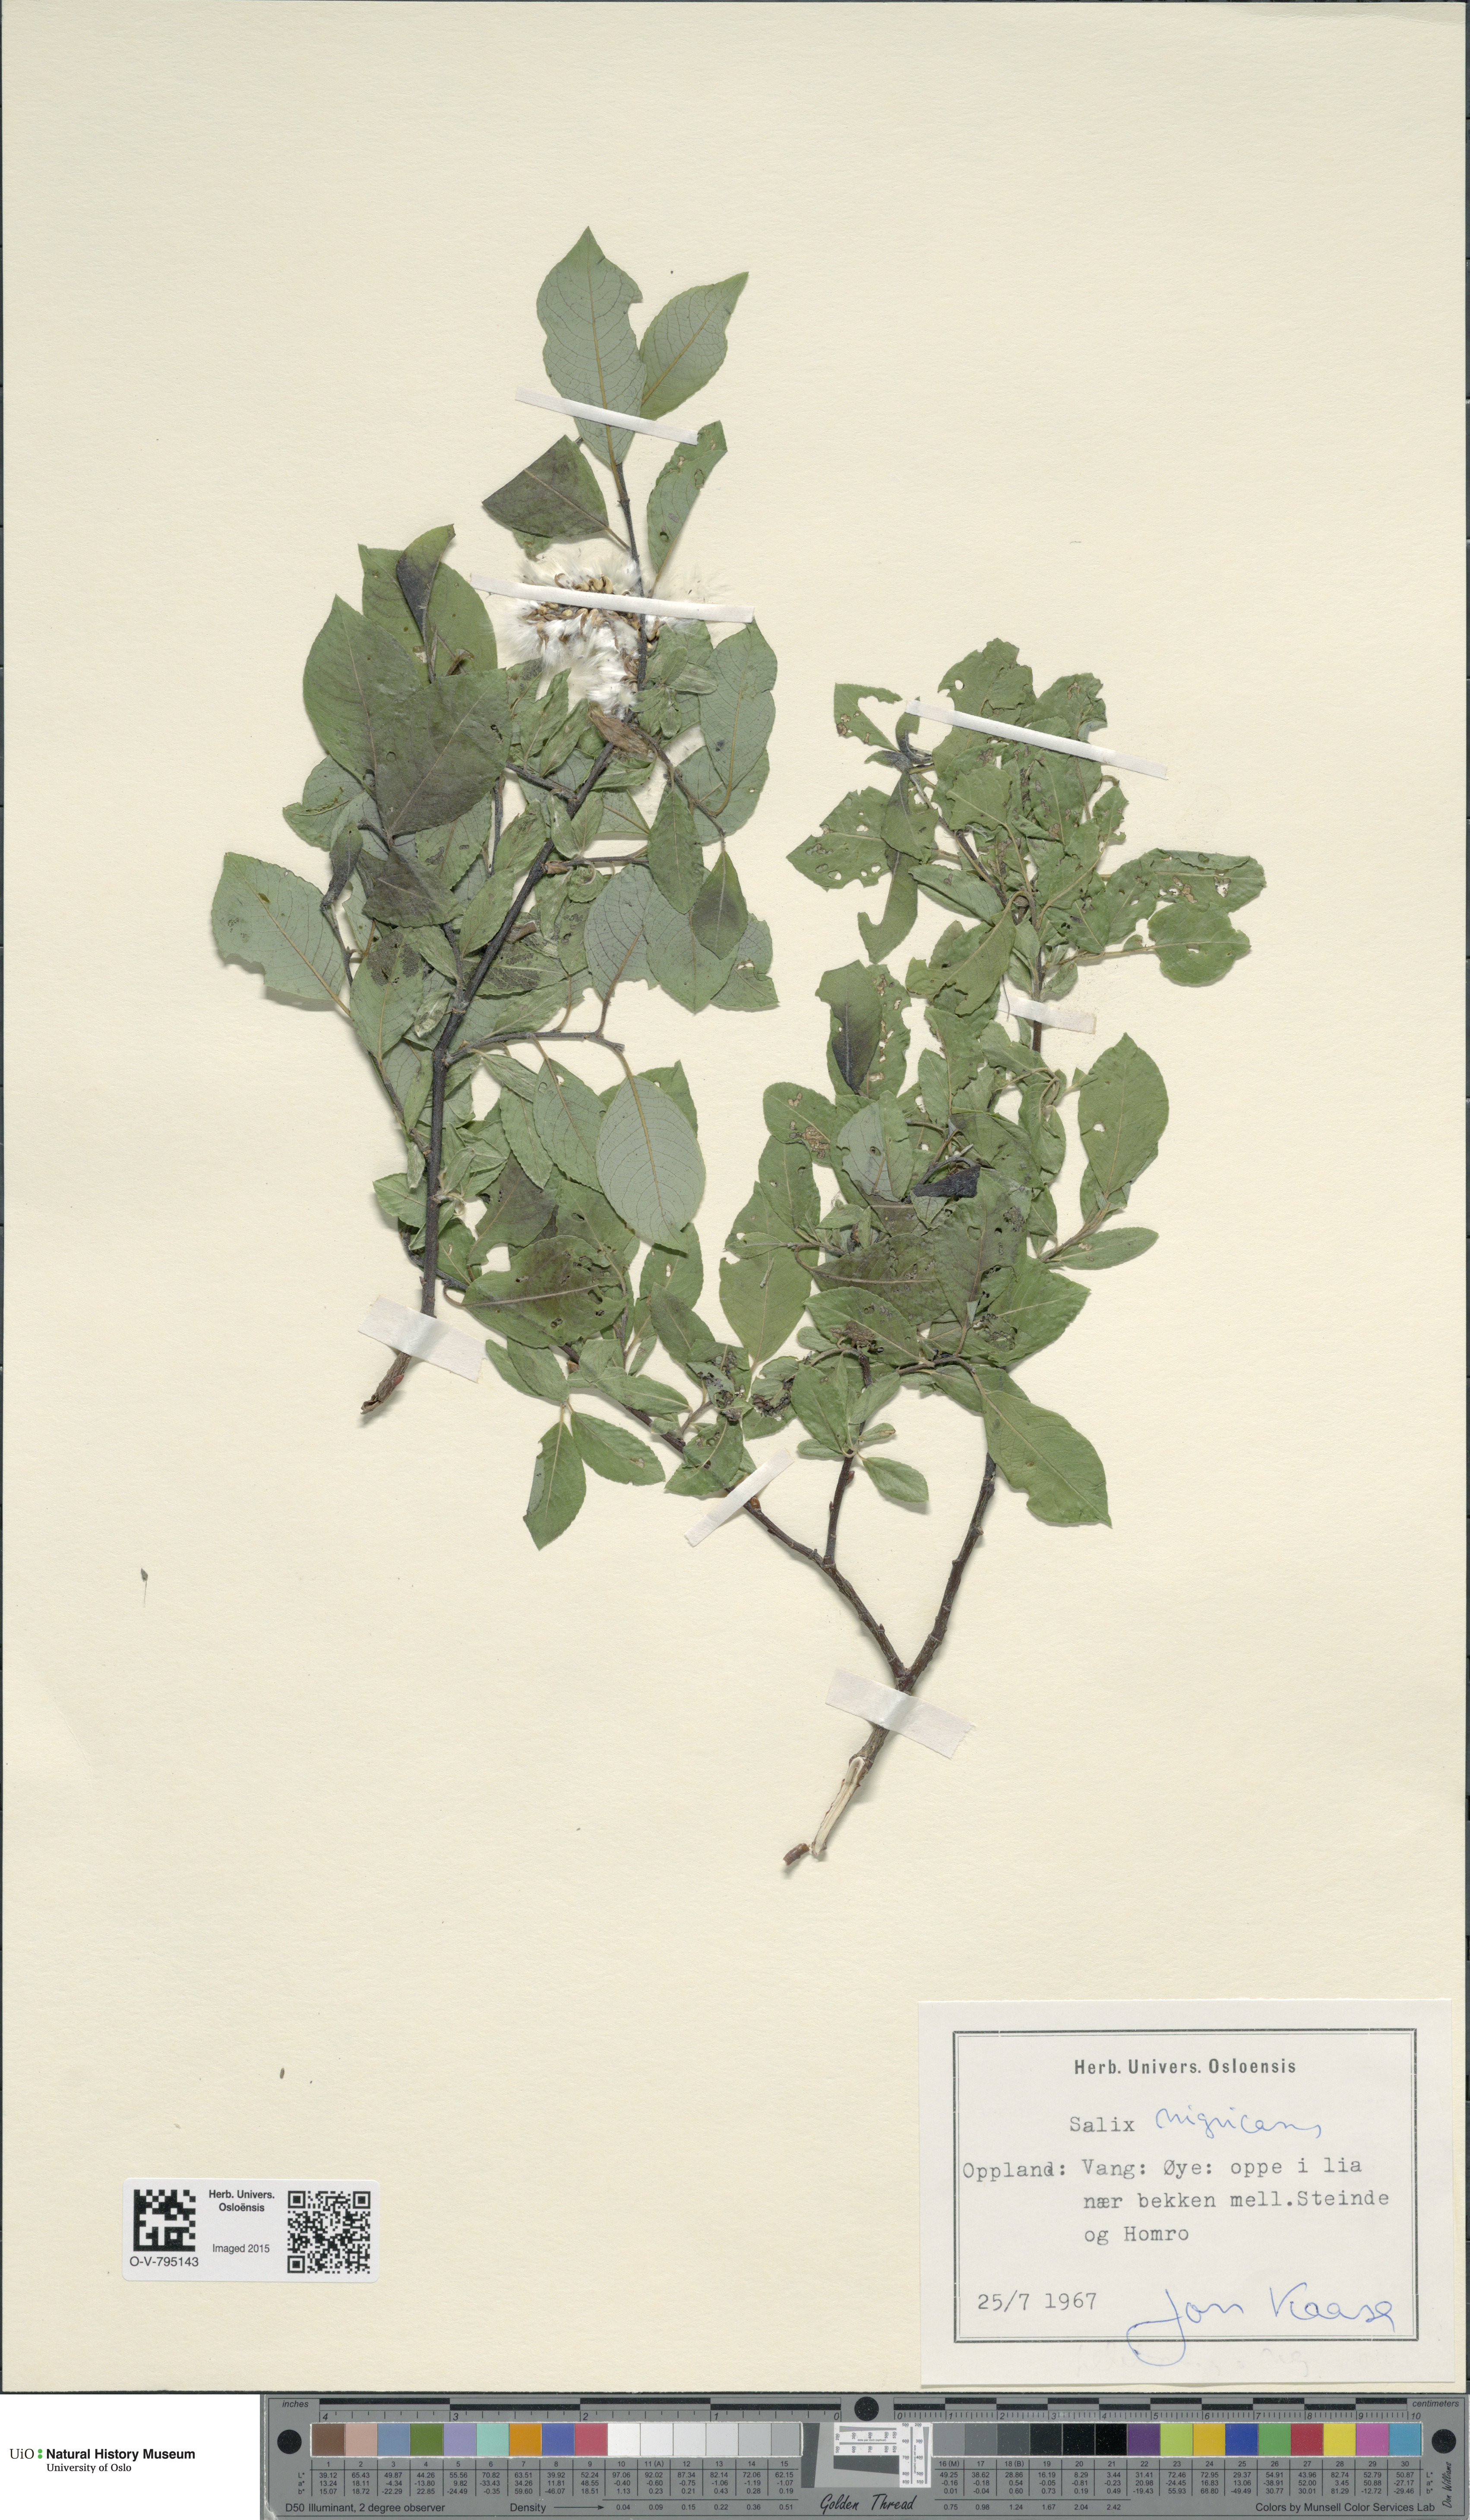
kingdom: Plantae
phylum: Tracheophyta
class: Magnoliopsida
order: Malpighiales
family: Salicaceae
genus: Salix
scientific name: Salix myrsinifolia
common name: Dark-leaved willow
